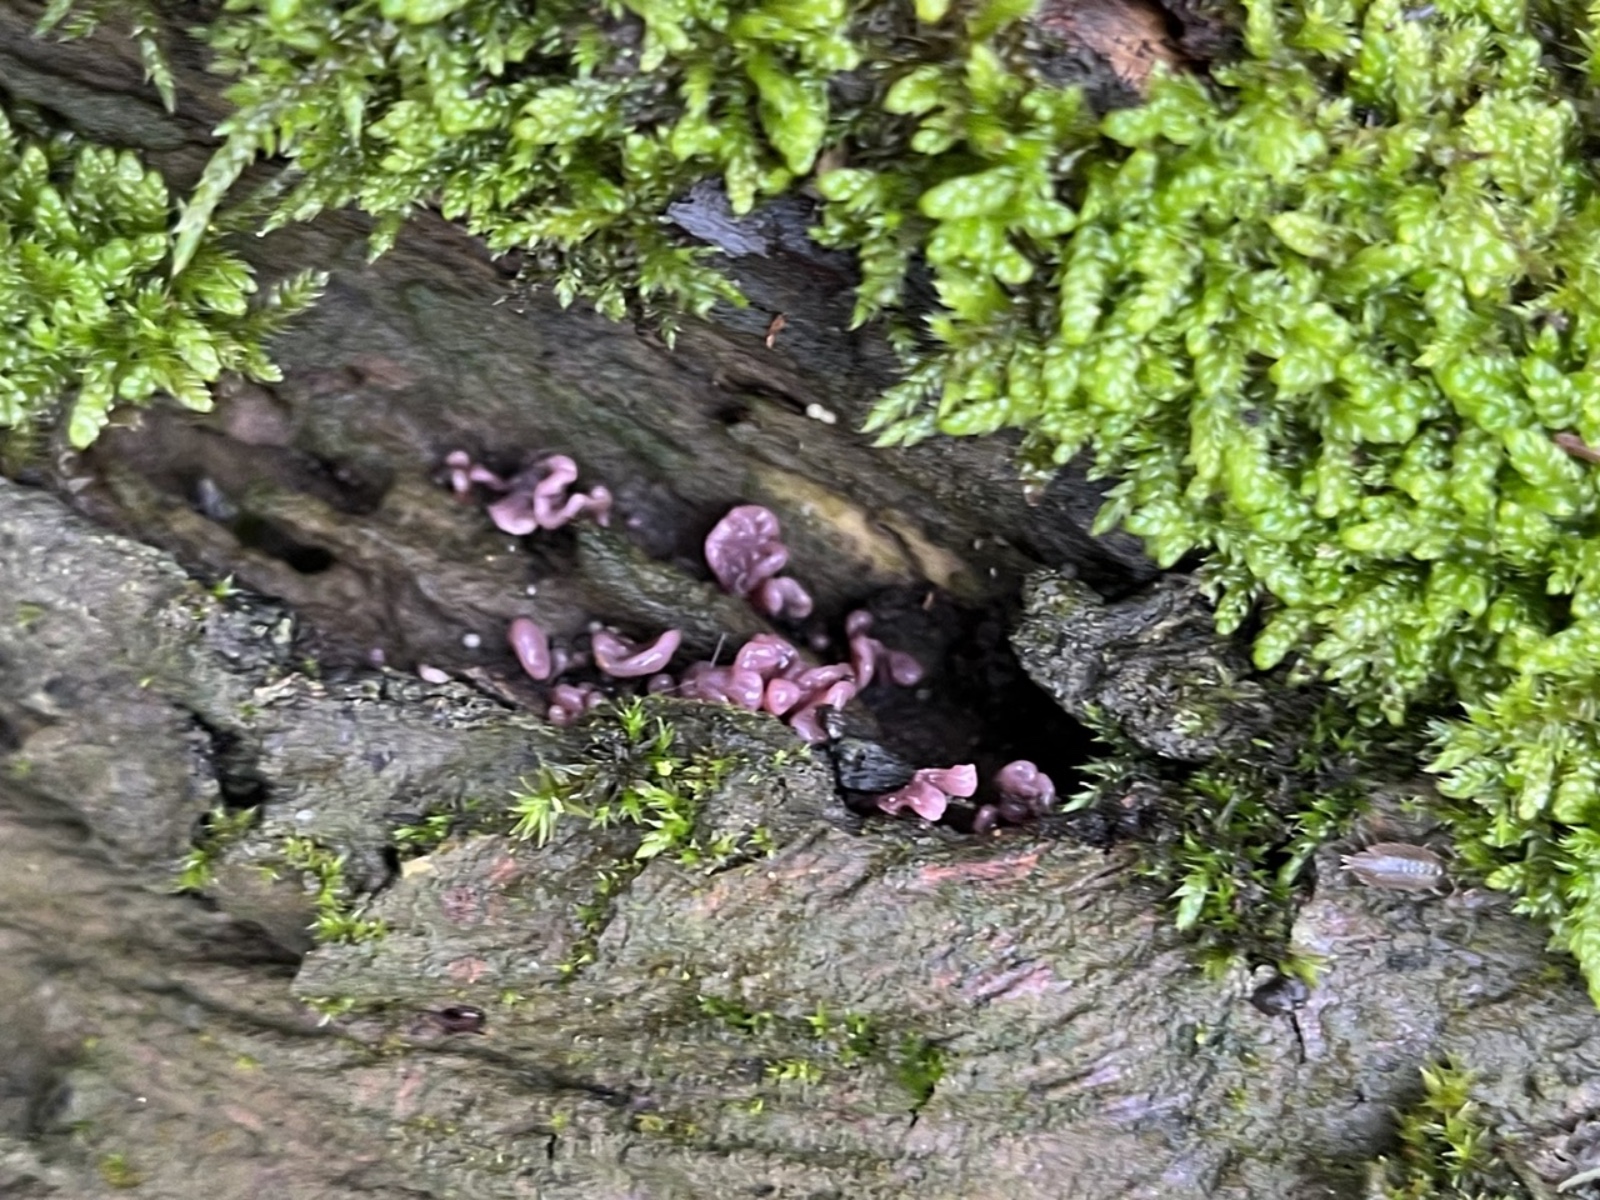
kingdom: Fungi
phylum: Ascomycota
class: Leotiomycetes
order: Helotiales
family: Gelatinodiscaceae
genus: Ascocoryne
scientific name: Ascocoryne sarcoides
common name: rødlilla sejskive
